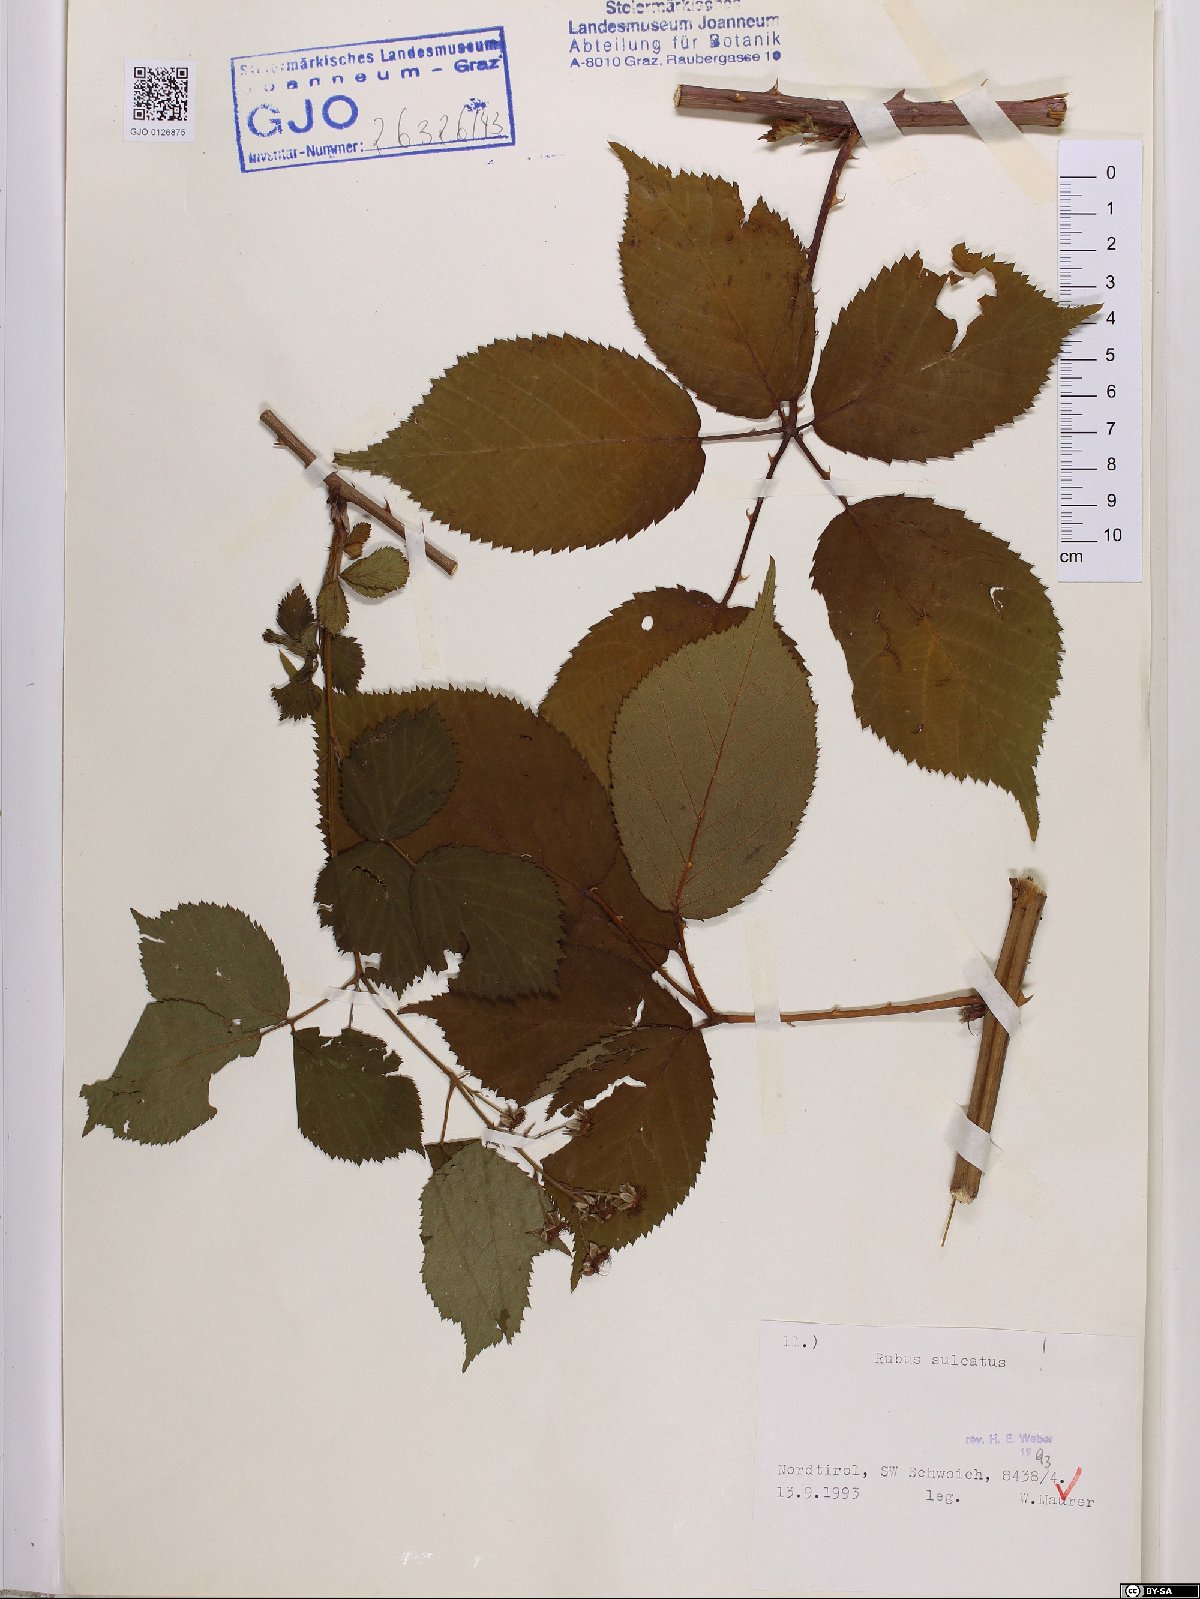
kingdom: Plantae
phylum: Tracheophyta
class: Magnoliopsida
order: Rosales
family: Rosaceae
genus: Rubus
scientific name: Rubus sulcatus
